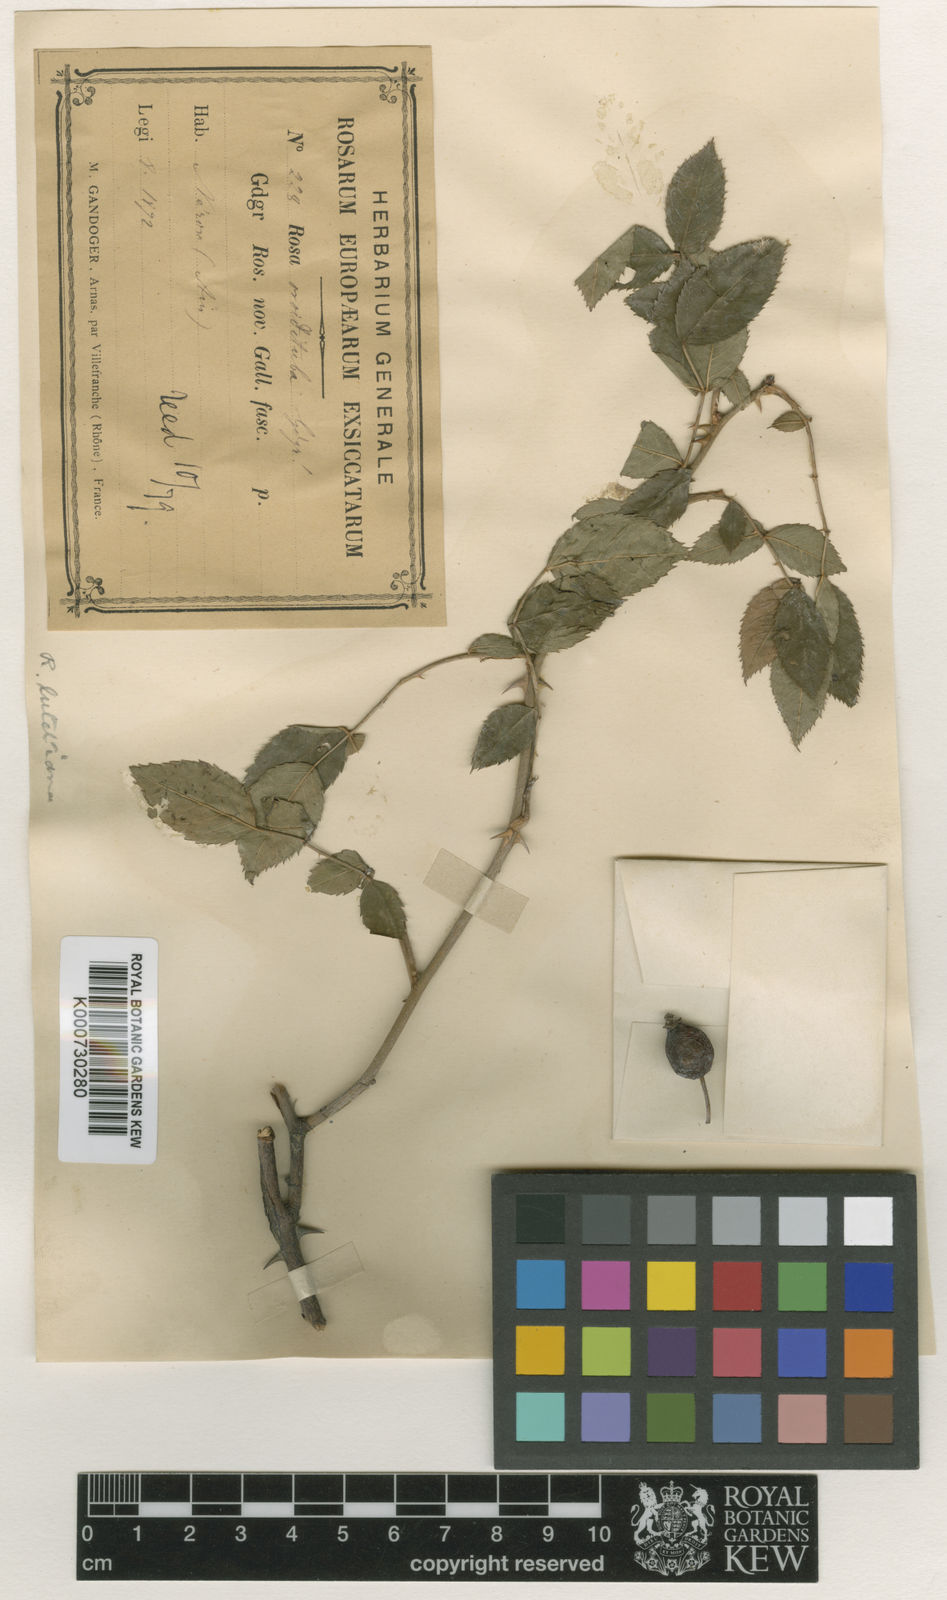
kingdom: Plantae
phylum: Tracheophyta
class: Magnoliopsida
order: Rosales
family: Rosaceae
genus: Rosa
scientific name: Rosa canina
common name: Dog rose
